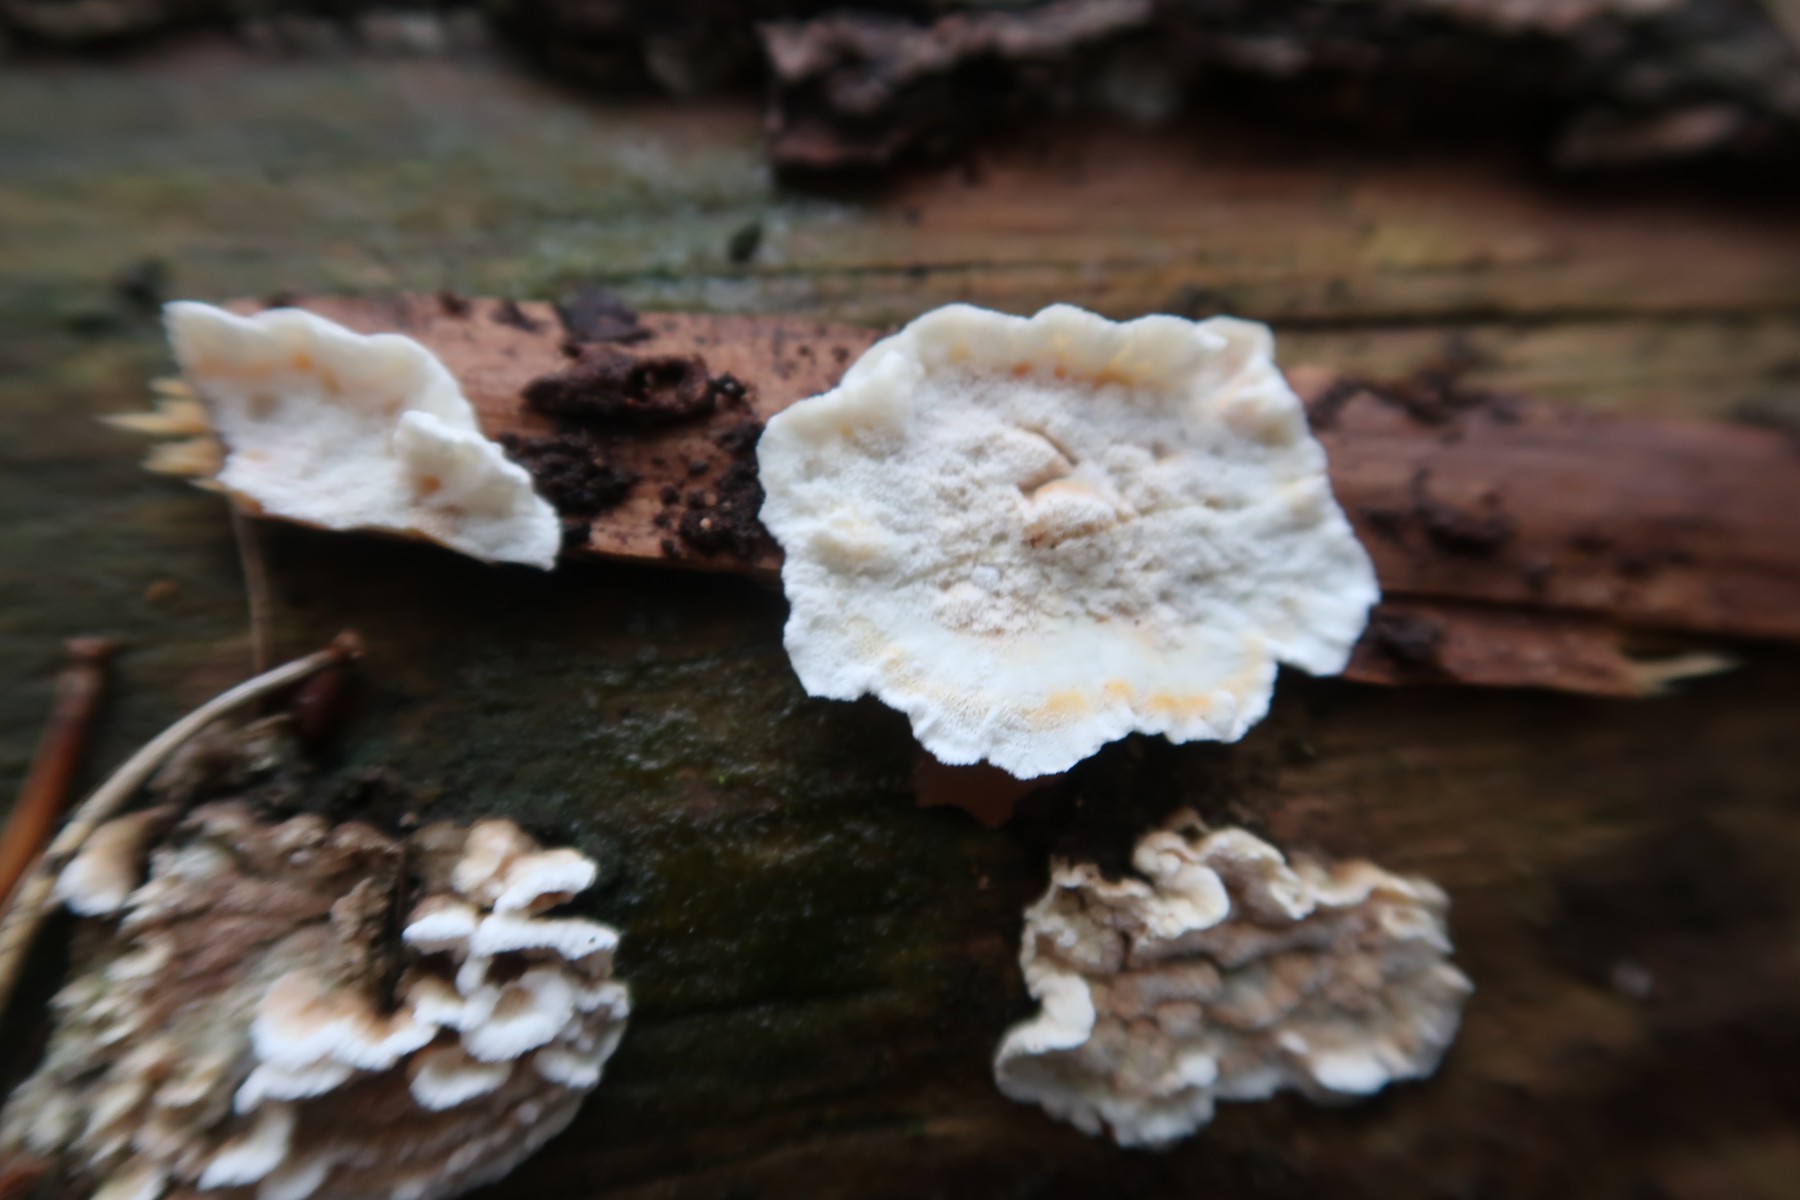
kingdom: Fungi
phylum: Basidiomycota
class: Agaricomycetes
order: Polyporales
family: Incrustoporiaceae
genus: Skeletocutis
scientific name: Skeletocutis amorpha
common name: orange krystalporesvamp
